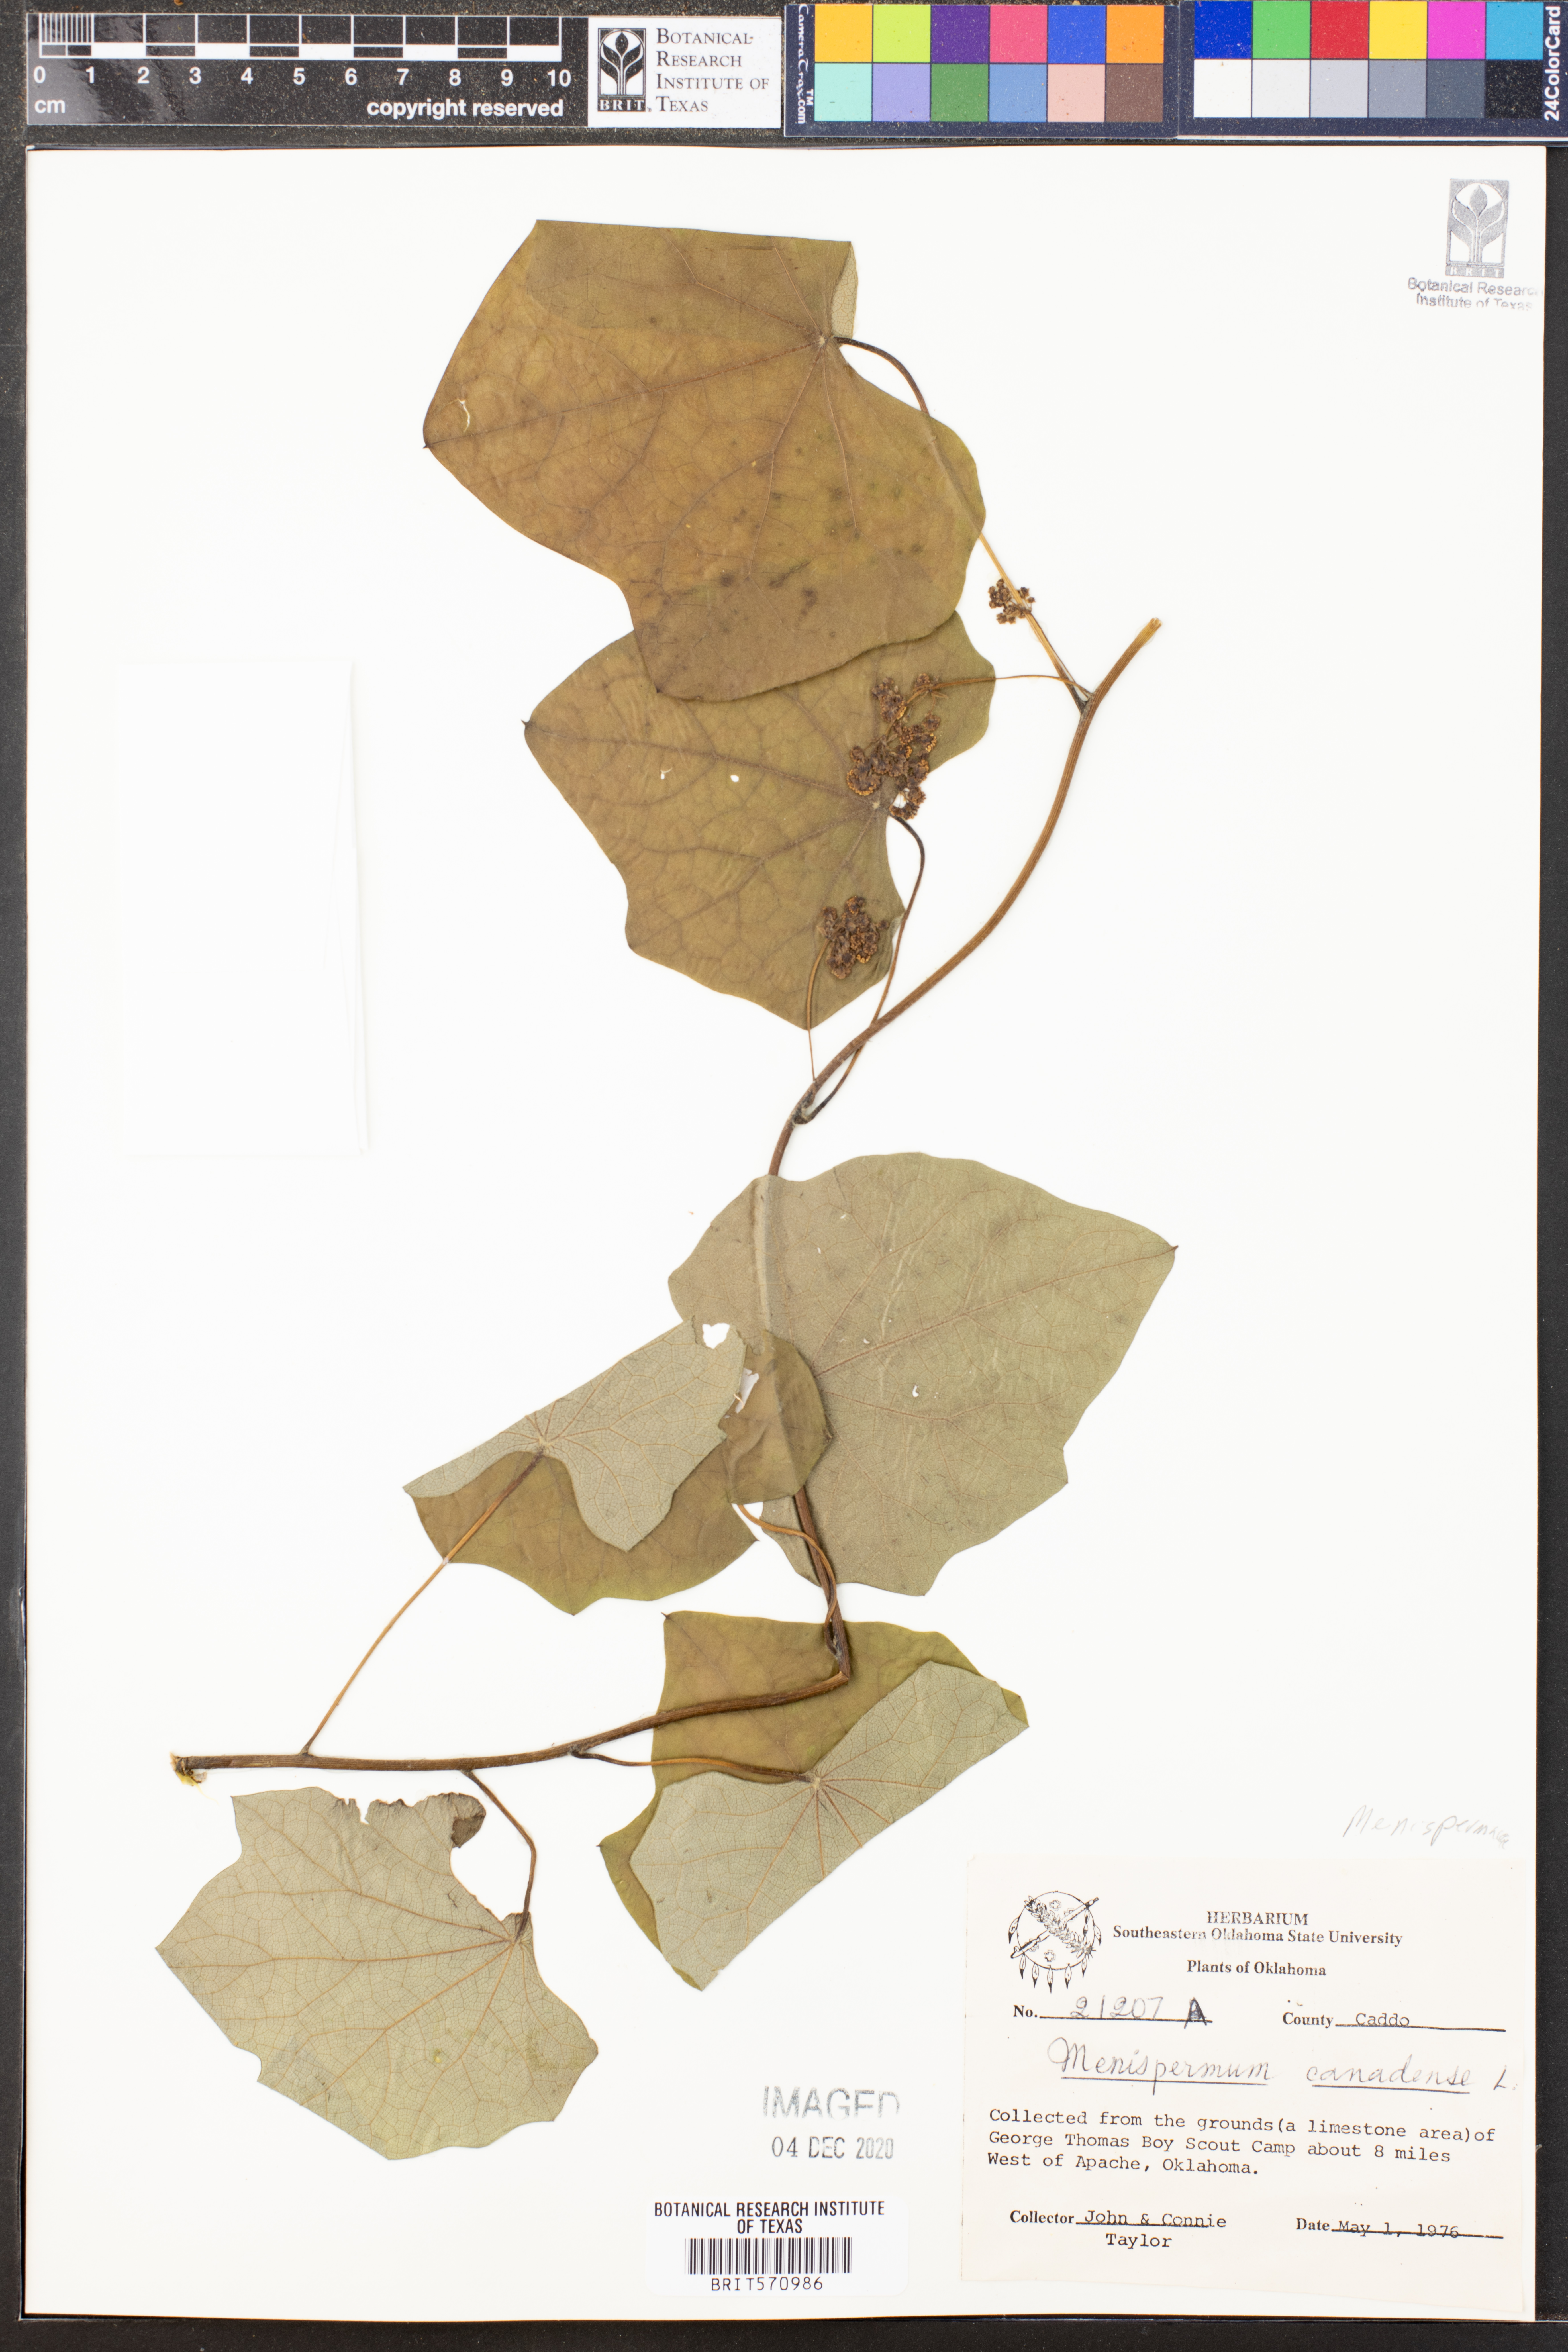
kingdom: Plantae
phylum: Tracheophyta
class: Magnoliopsida
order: Ranunculales
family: Menispermaceae
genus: Menispermum
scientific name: Menispermum canadense
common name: Moonseed
